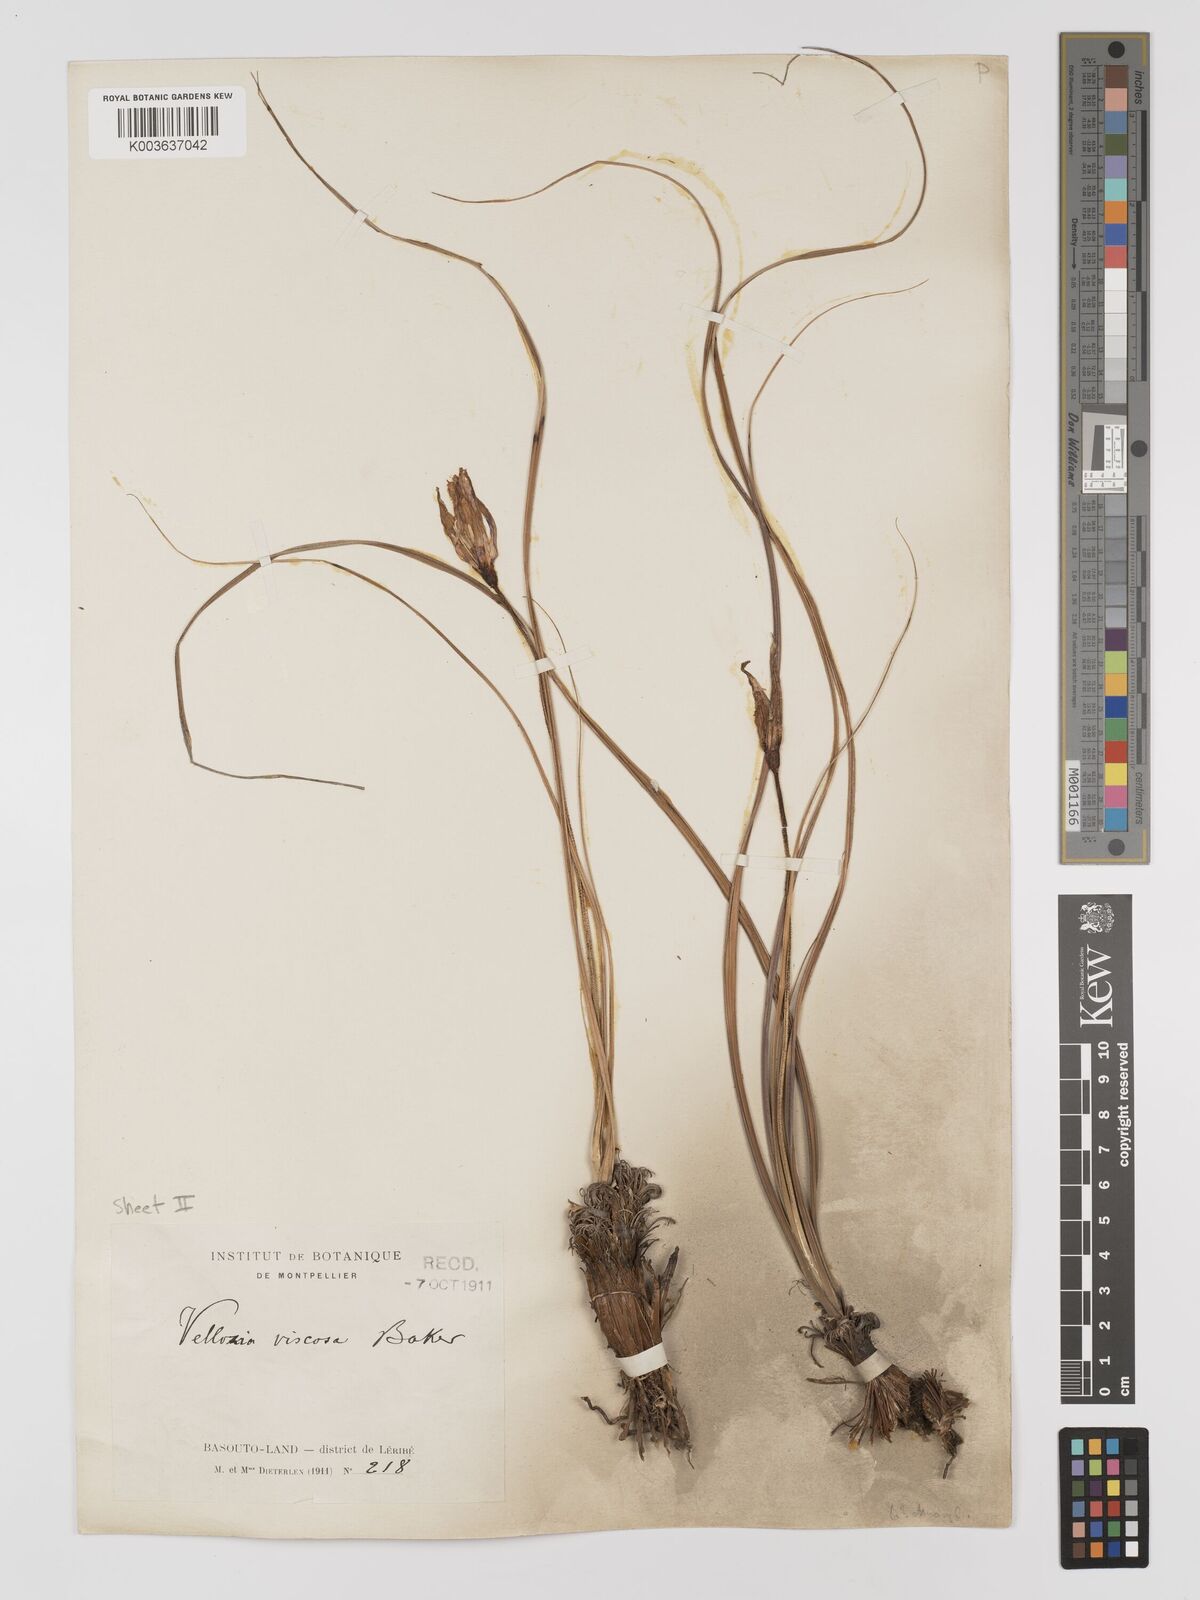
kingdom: Plantae
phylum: Tracheophyta
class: Liliopsida
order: Pandanales
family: Velloziaceae
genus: Xerophyta
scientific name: Xerophyta viscosa
